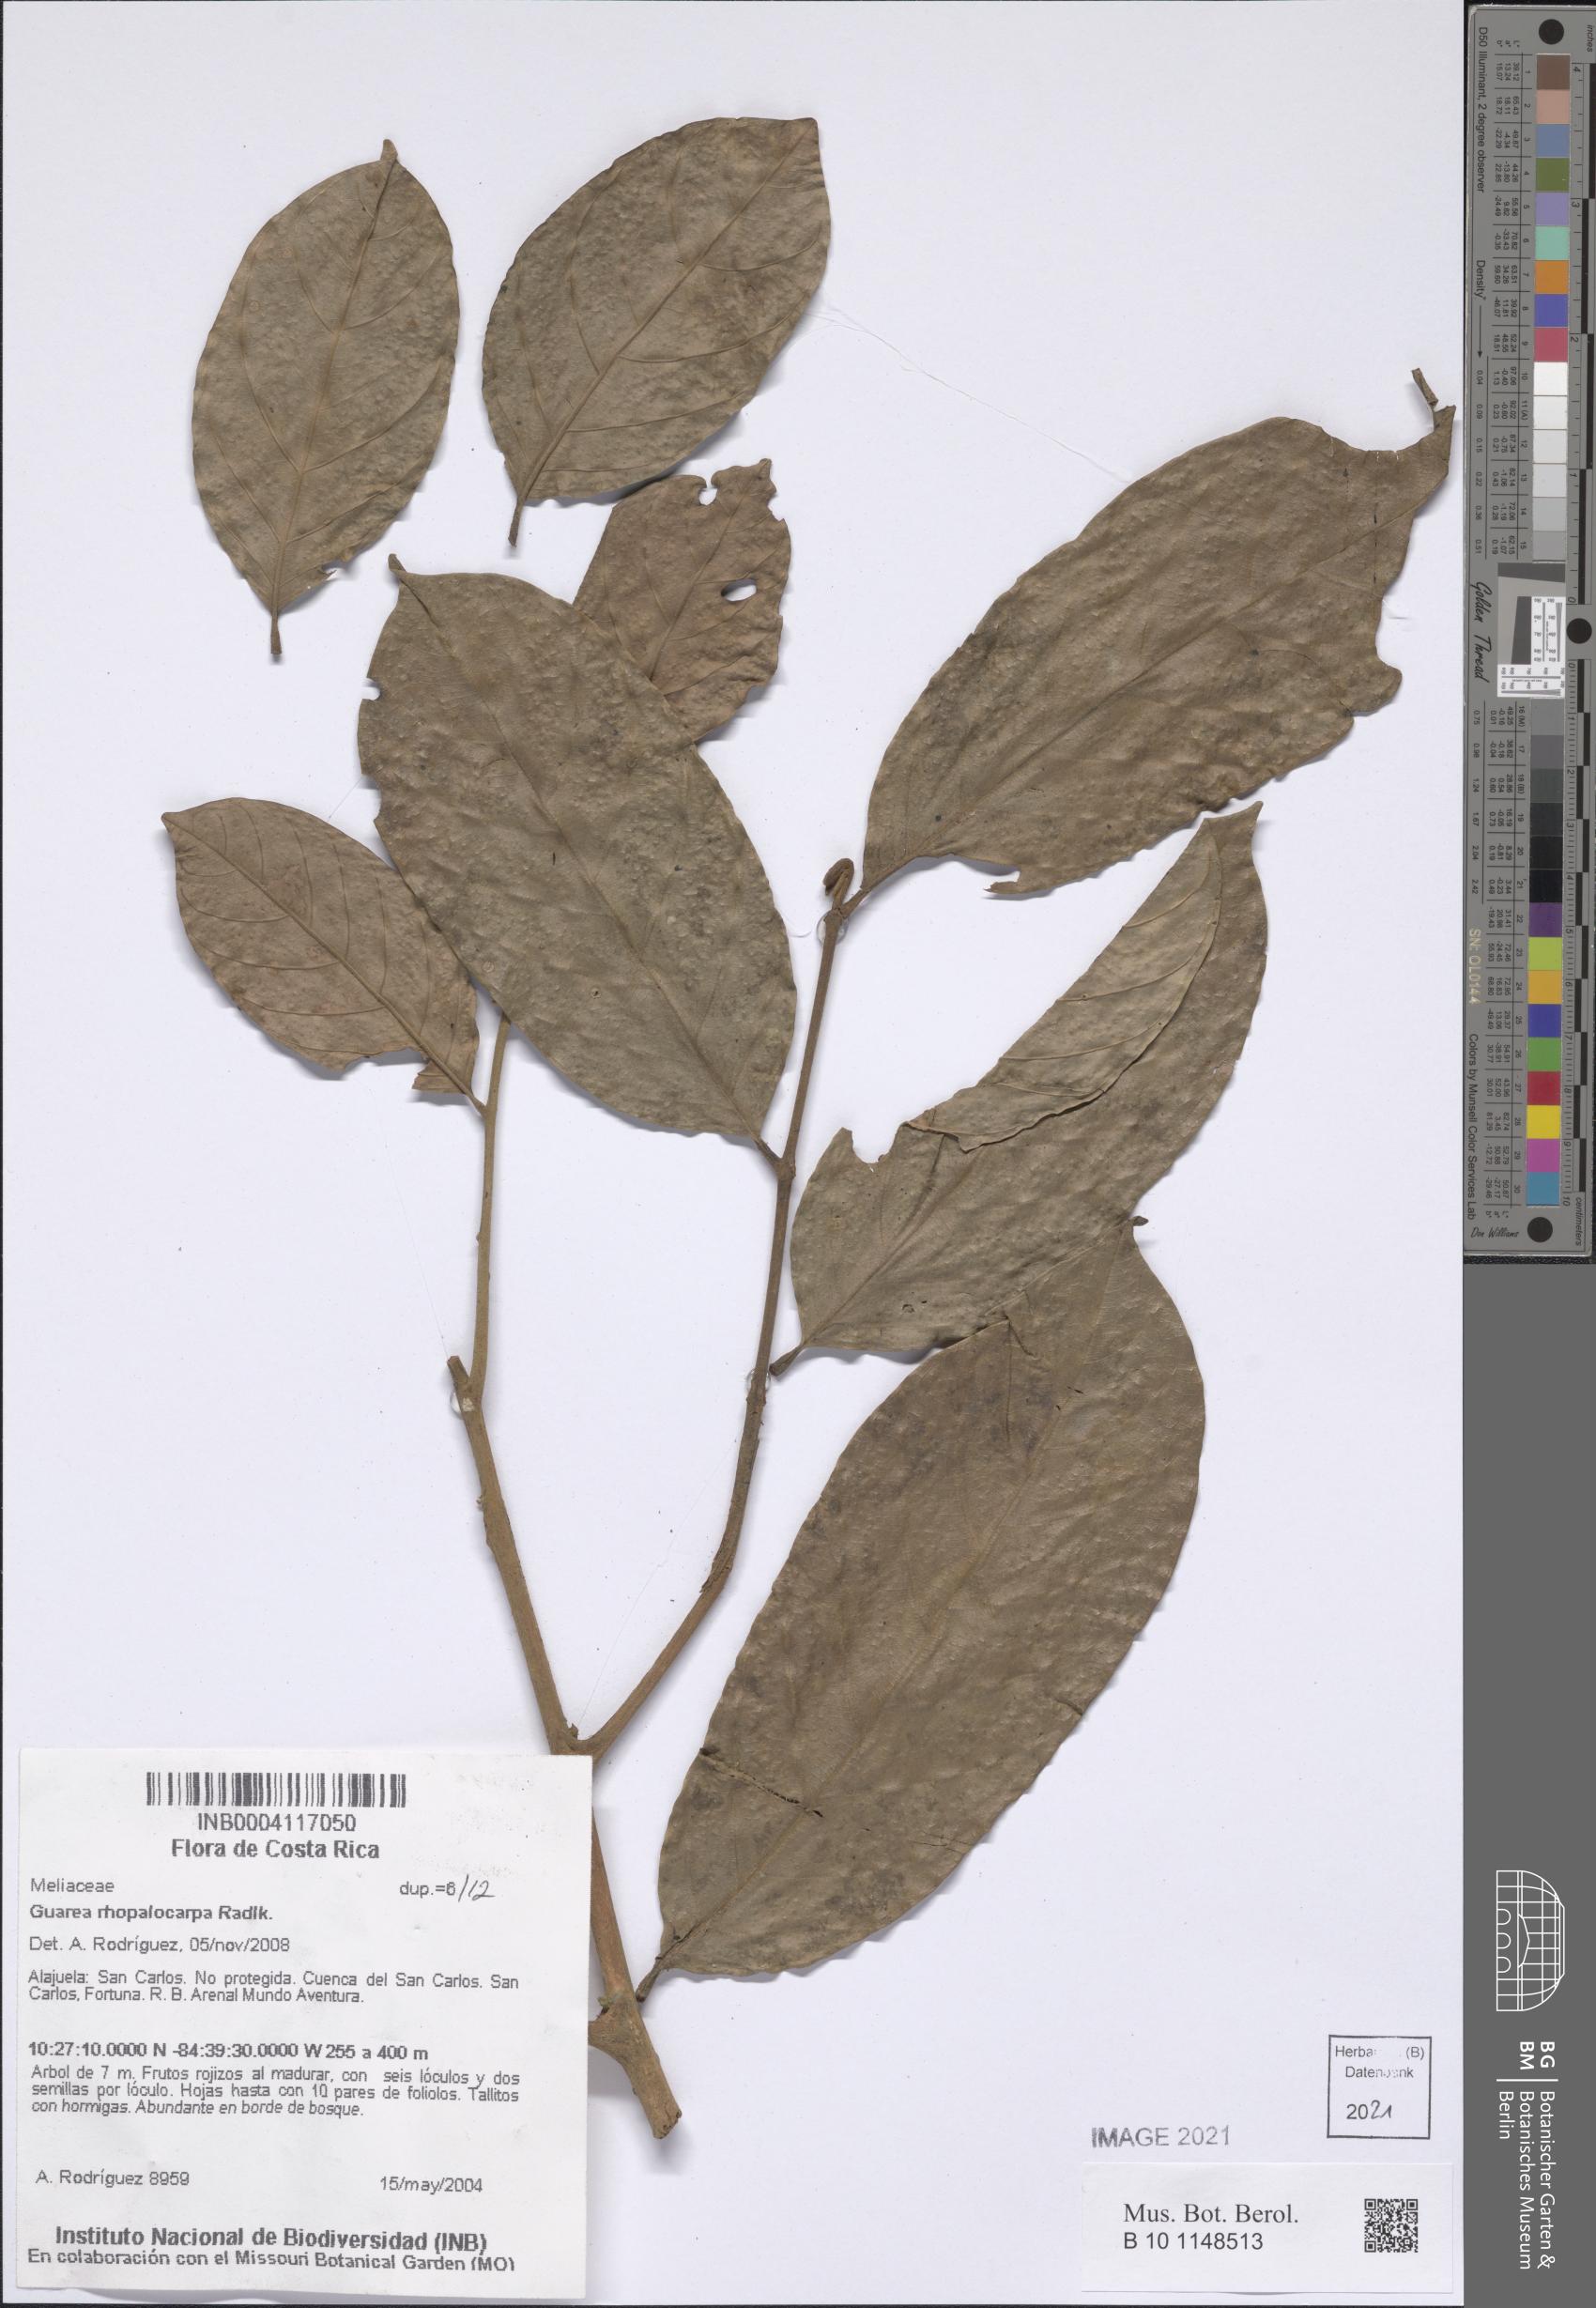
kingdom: Plantae
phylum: Tracheophyta
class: Magnoliopsida
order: Sapindales
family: Meliaceae
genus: Guarea
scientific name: Guarea rhopalocarpa
